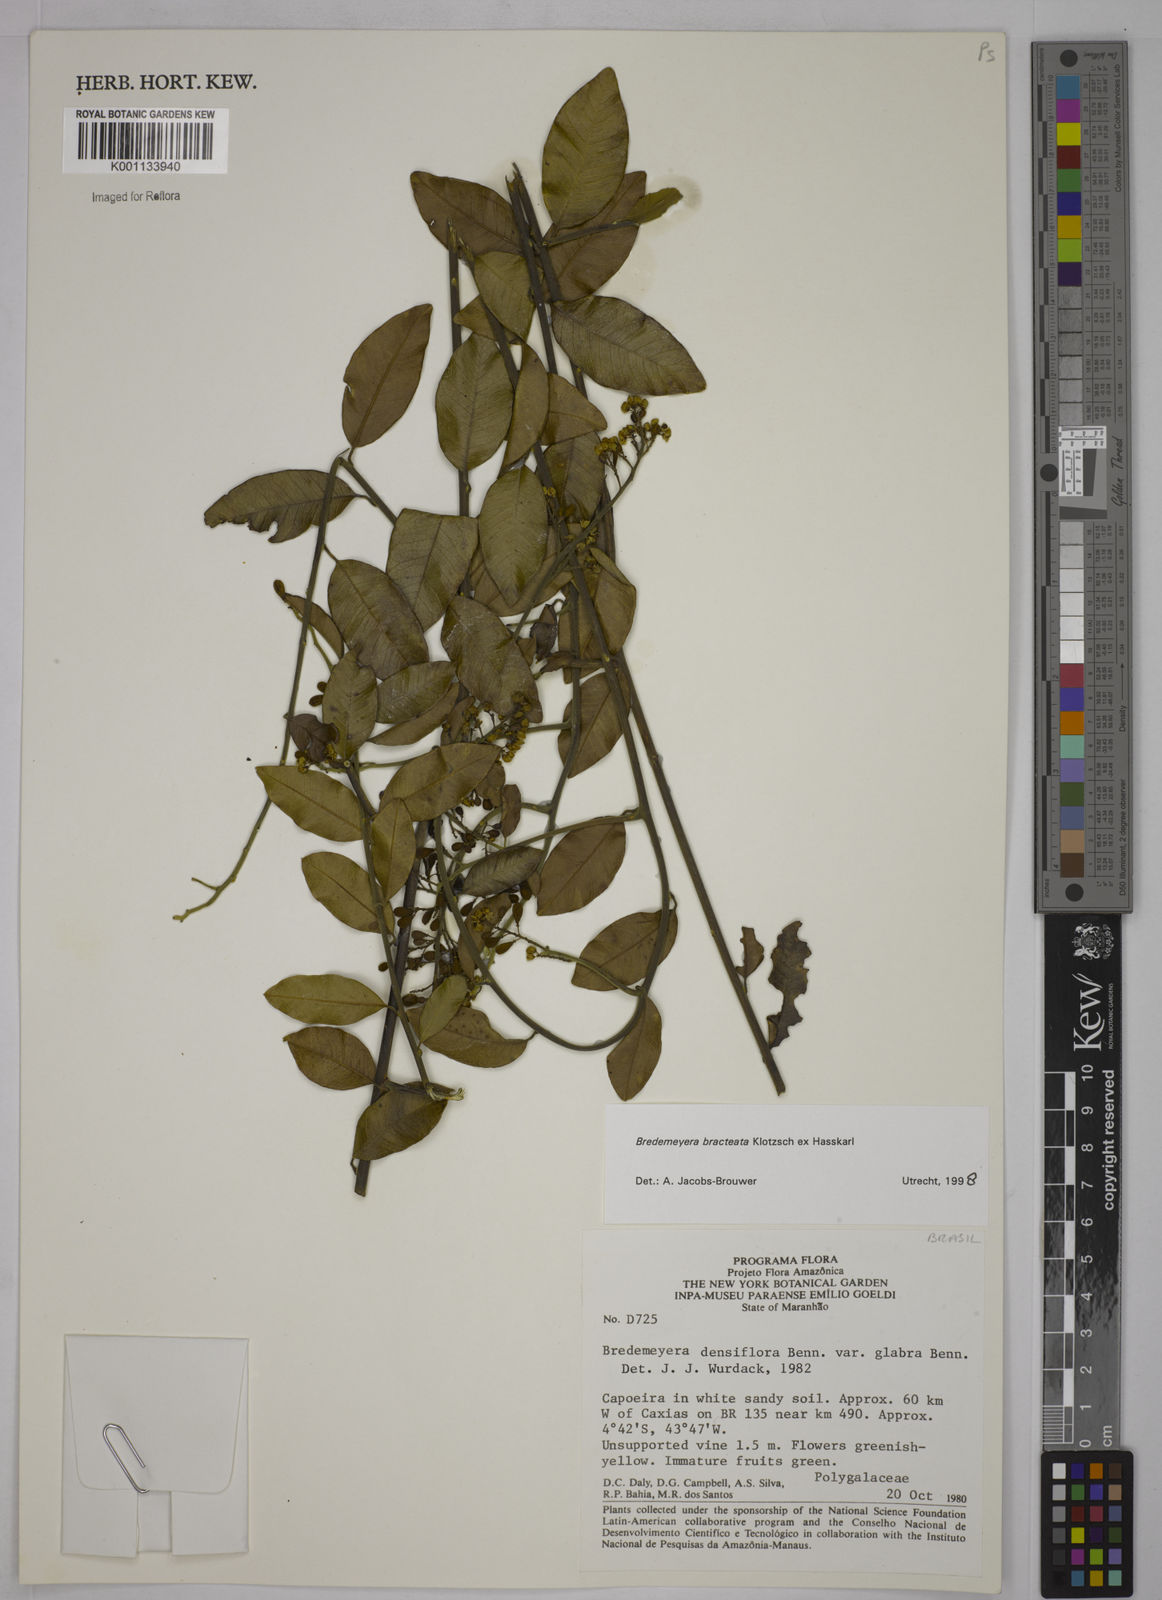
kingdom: Plantae
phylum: Tracheophyta
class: Magnoliopsida
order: Fabales
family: Polygalaceae
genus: Bredemeyera
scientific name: Bredemeyera bracteata
